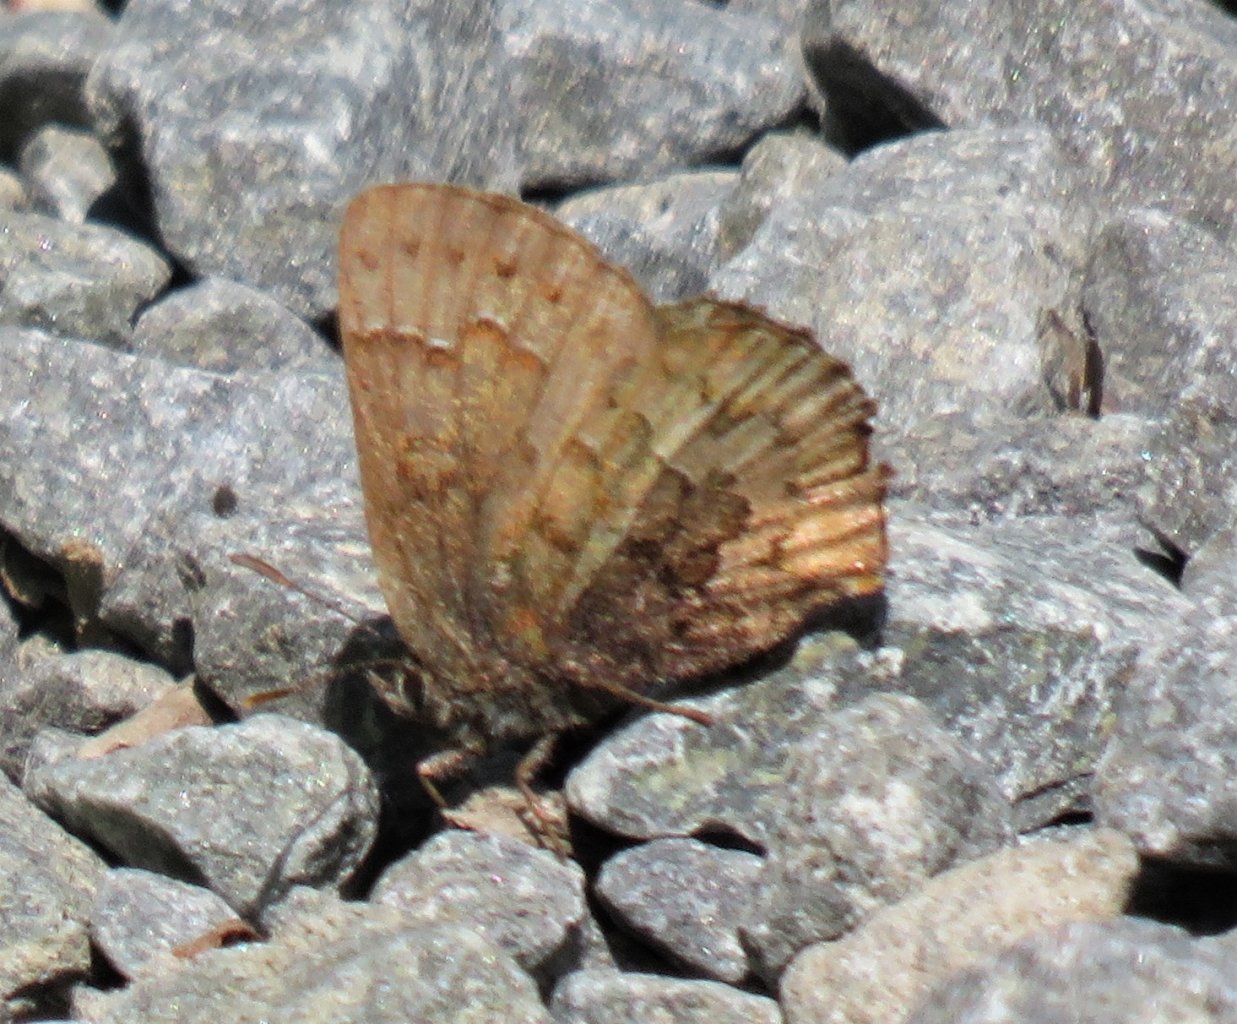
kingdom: Animalia
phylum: Arthropoda
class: Insecta
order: Lepidoptera
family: Lycaenidae
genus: Incisalia
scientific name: Incisalia niphon
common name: Eastern Pine Elfin
